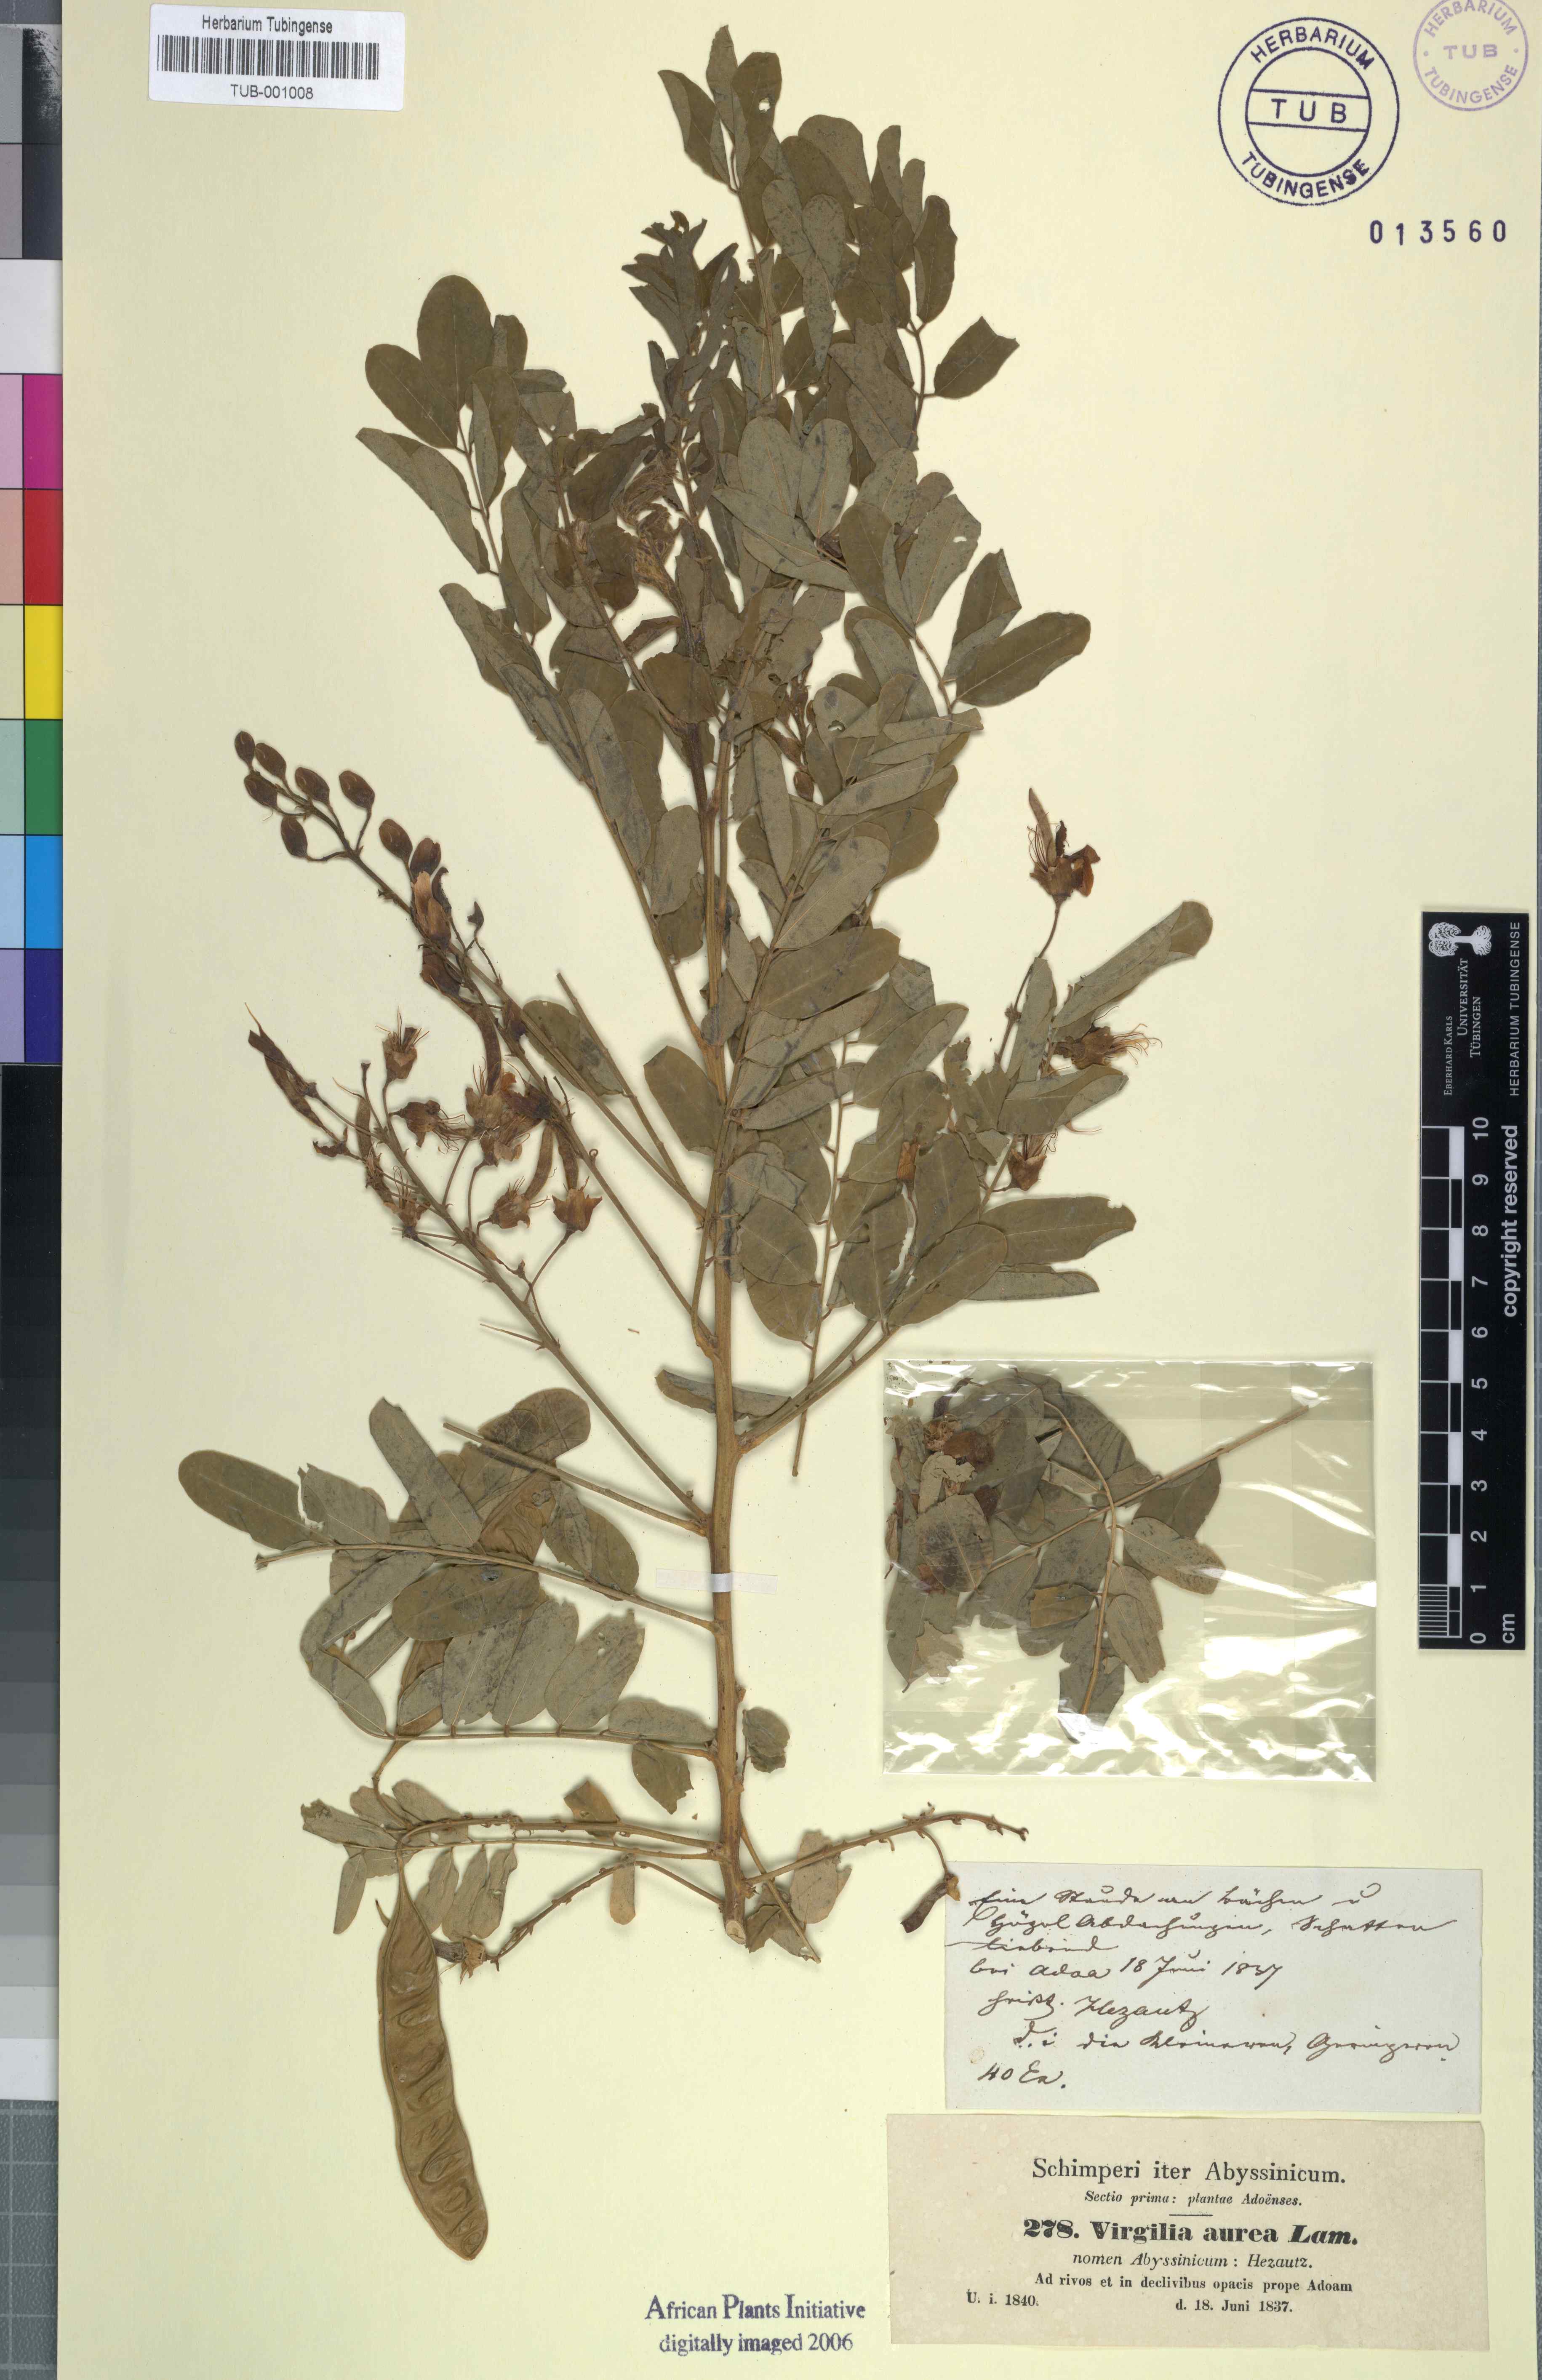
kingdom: Plantae
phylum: Tracheophyta
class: Magnoliopsida
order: Fabales
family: Fabaceae
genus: Calpurnia
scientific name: Calpurnia aurea
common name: Wild laburnum
